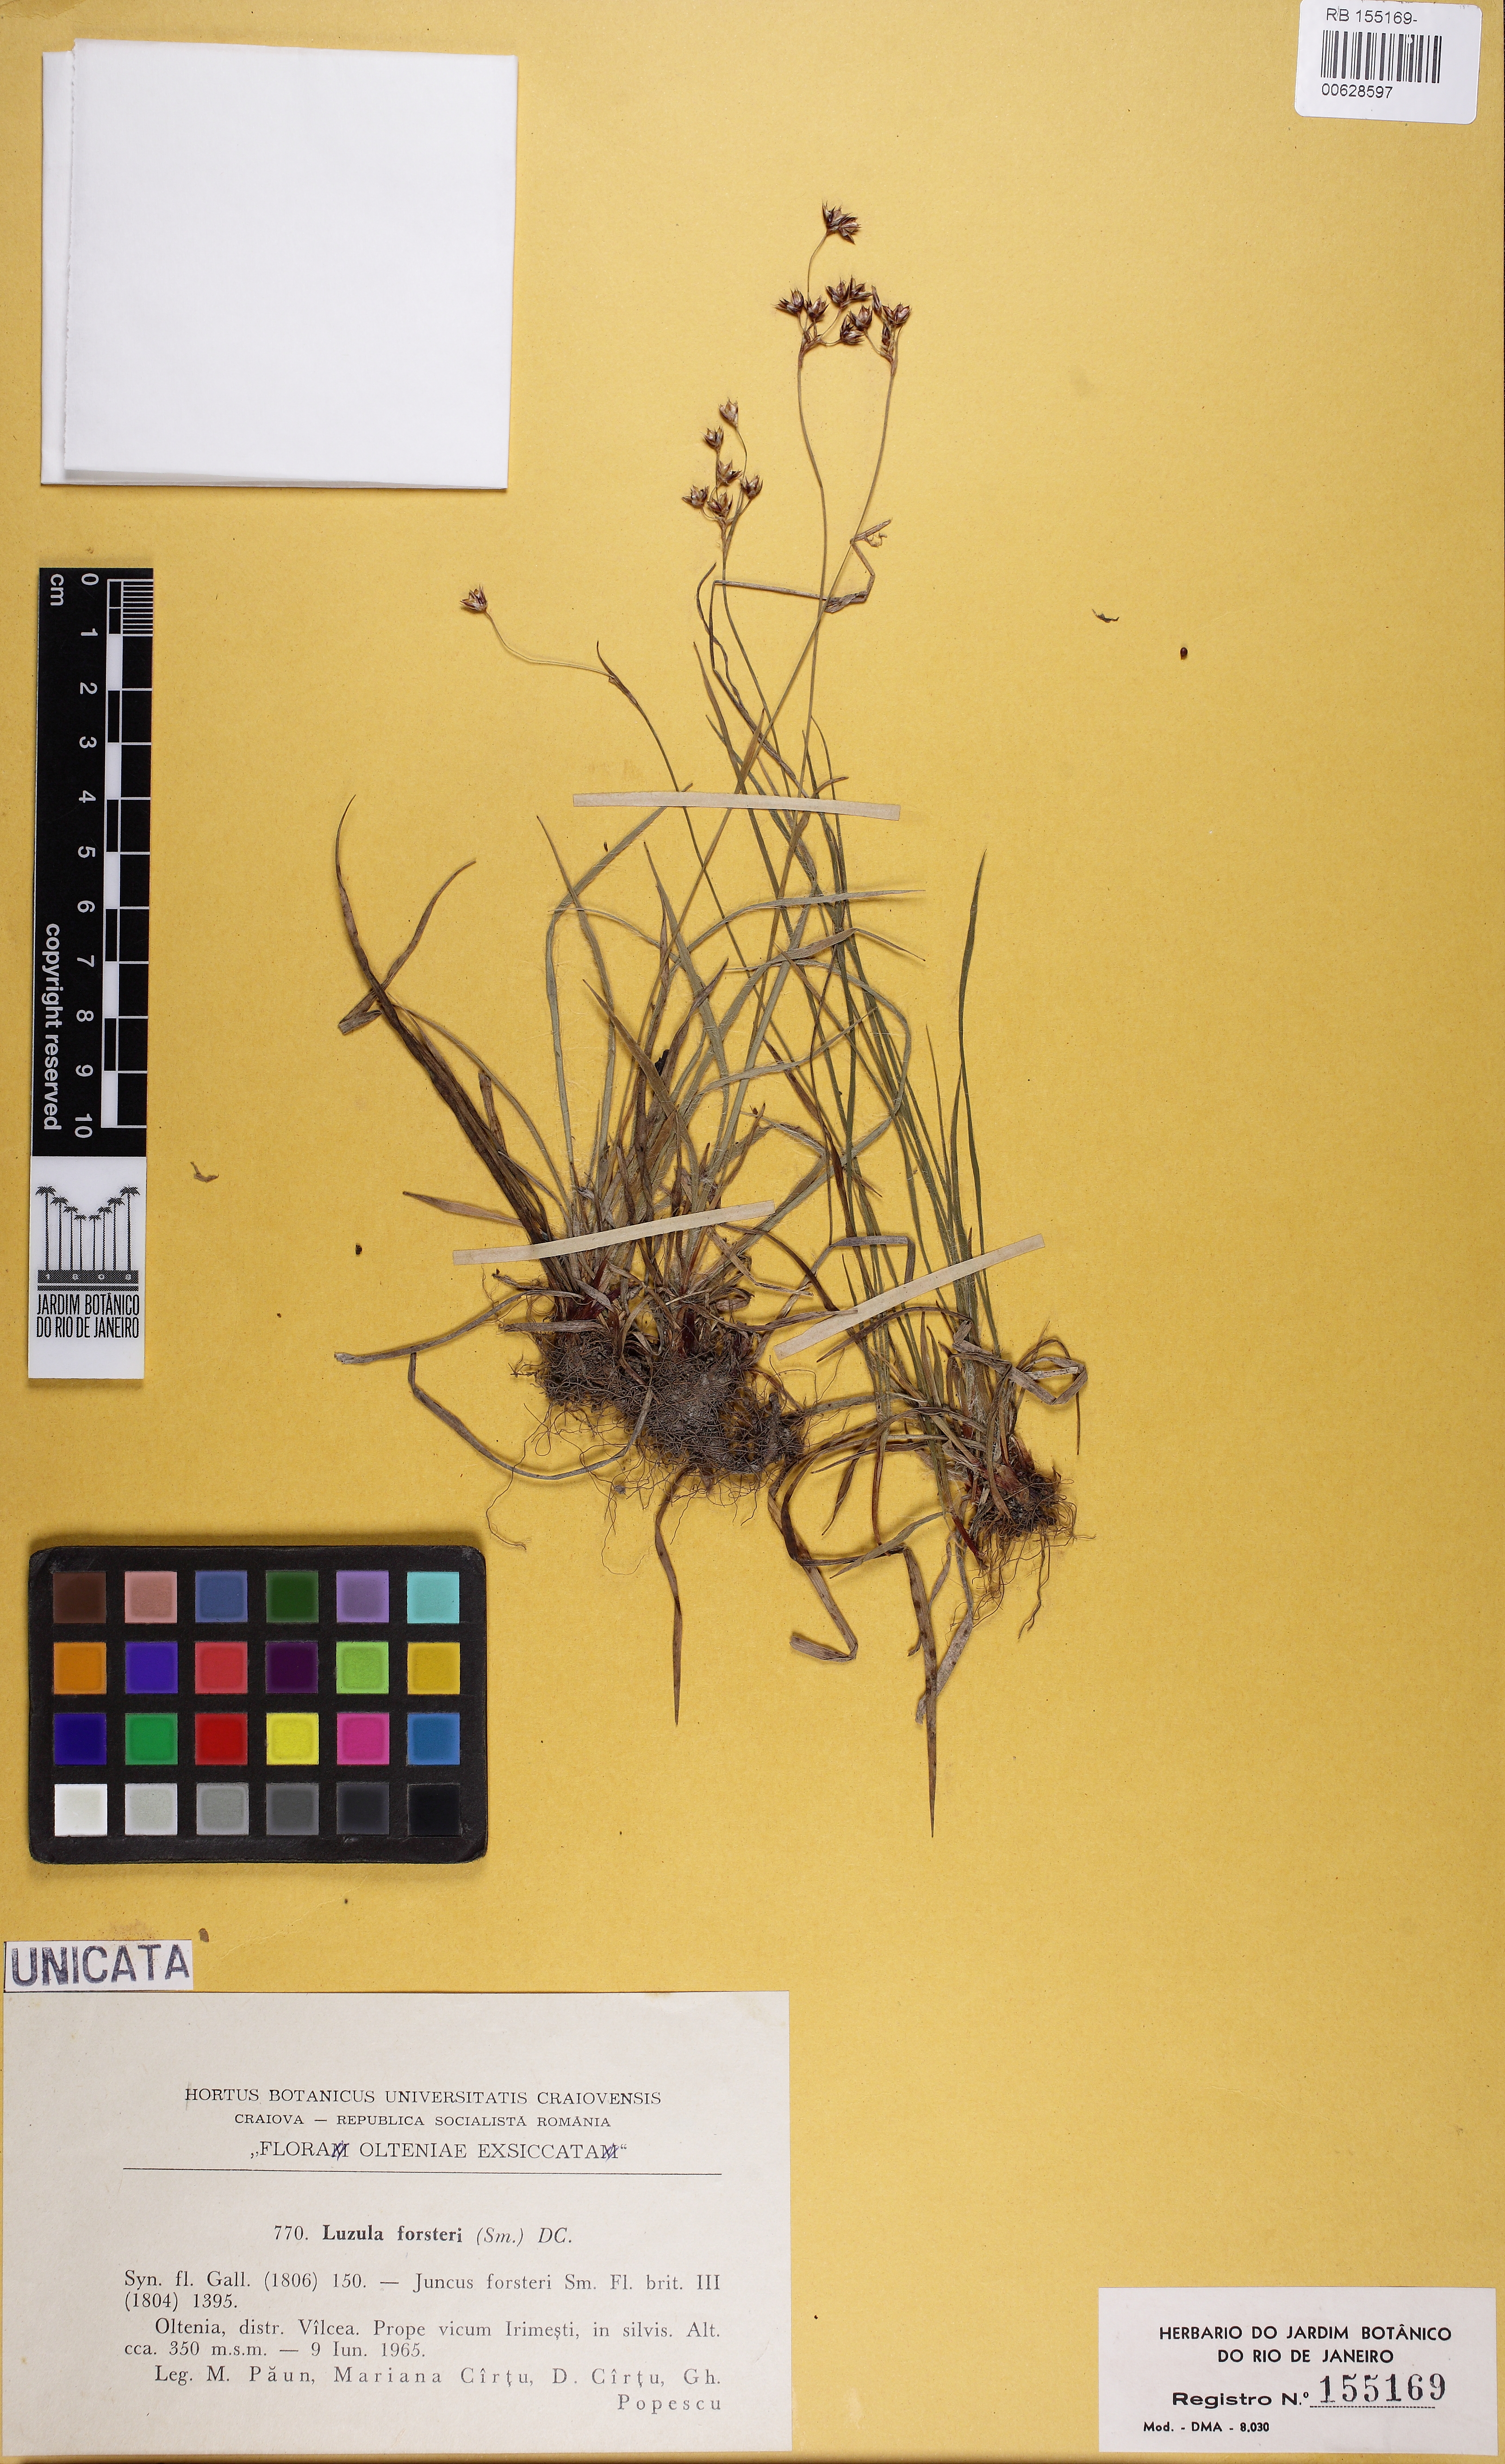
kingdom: Plantae
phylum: Tracheophyta
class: Liliopsida
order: Poales
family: Juncaceae
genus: Luzula
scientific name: Luzula forsteri
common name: Southern wood-rush
